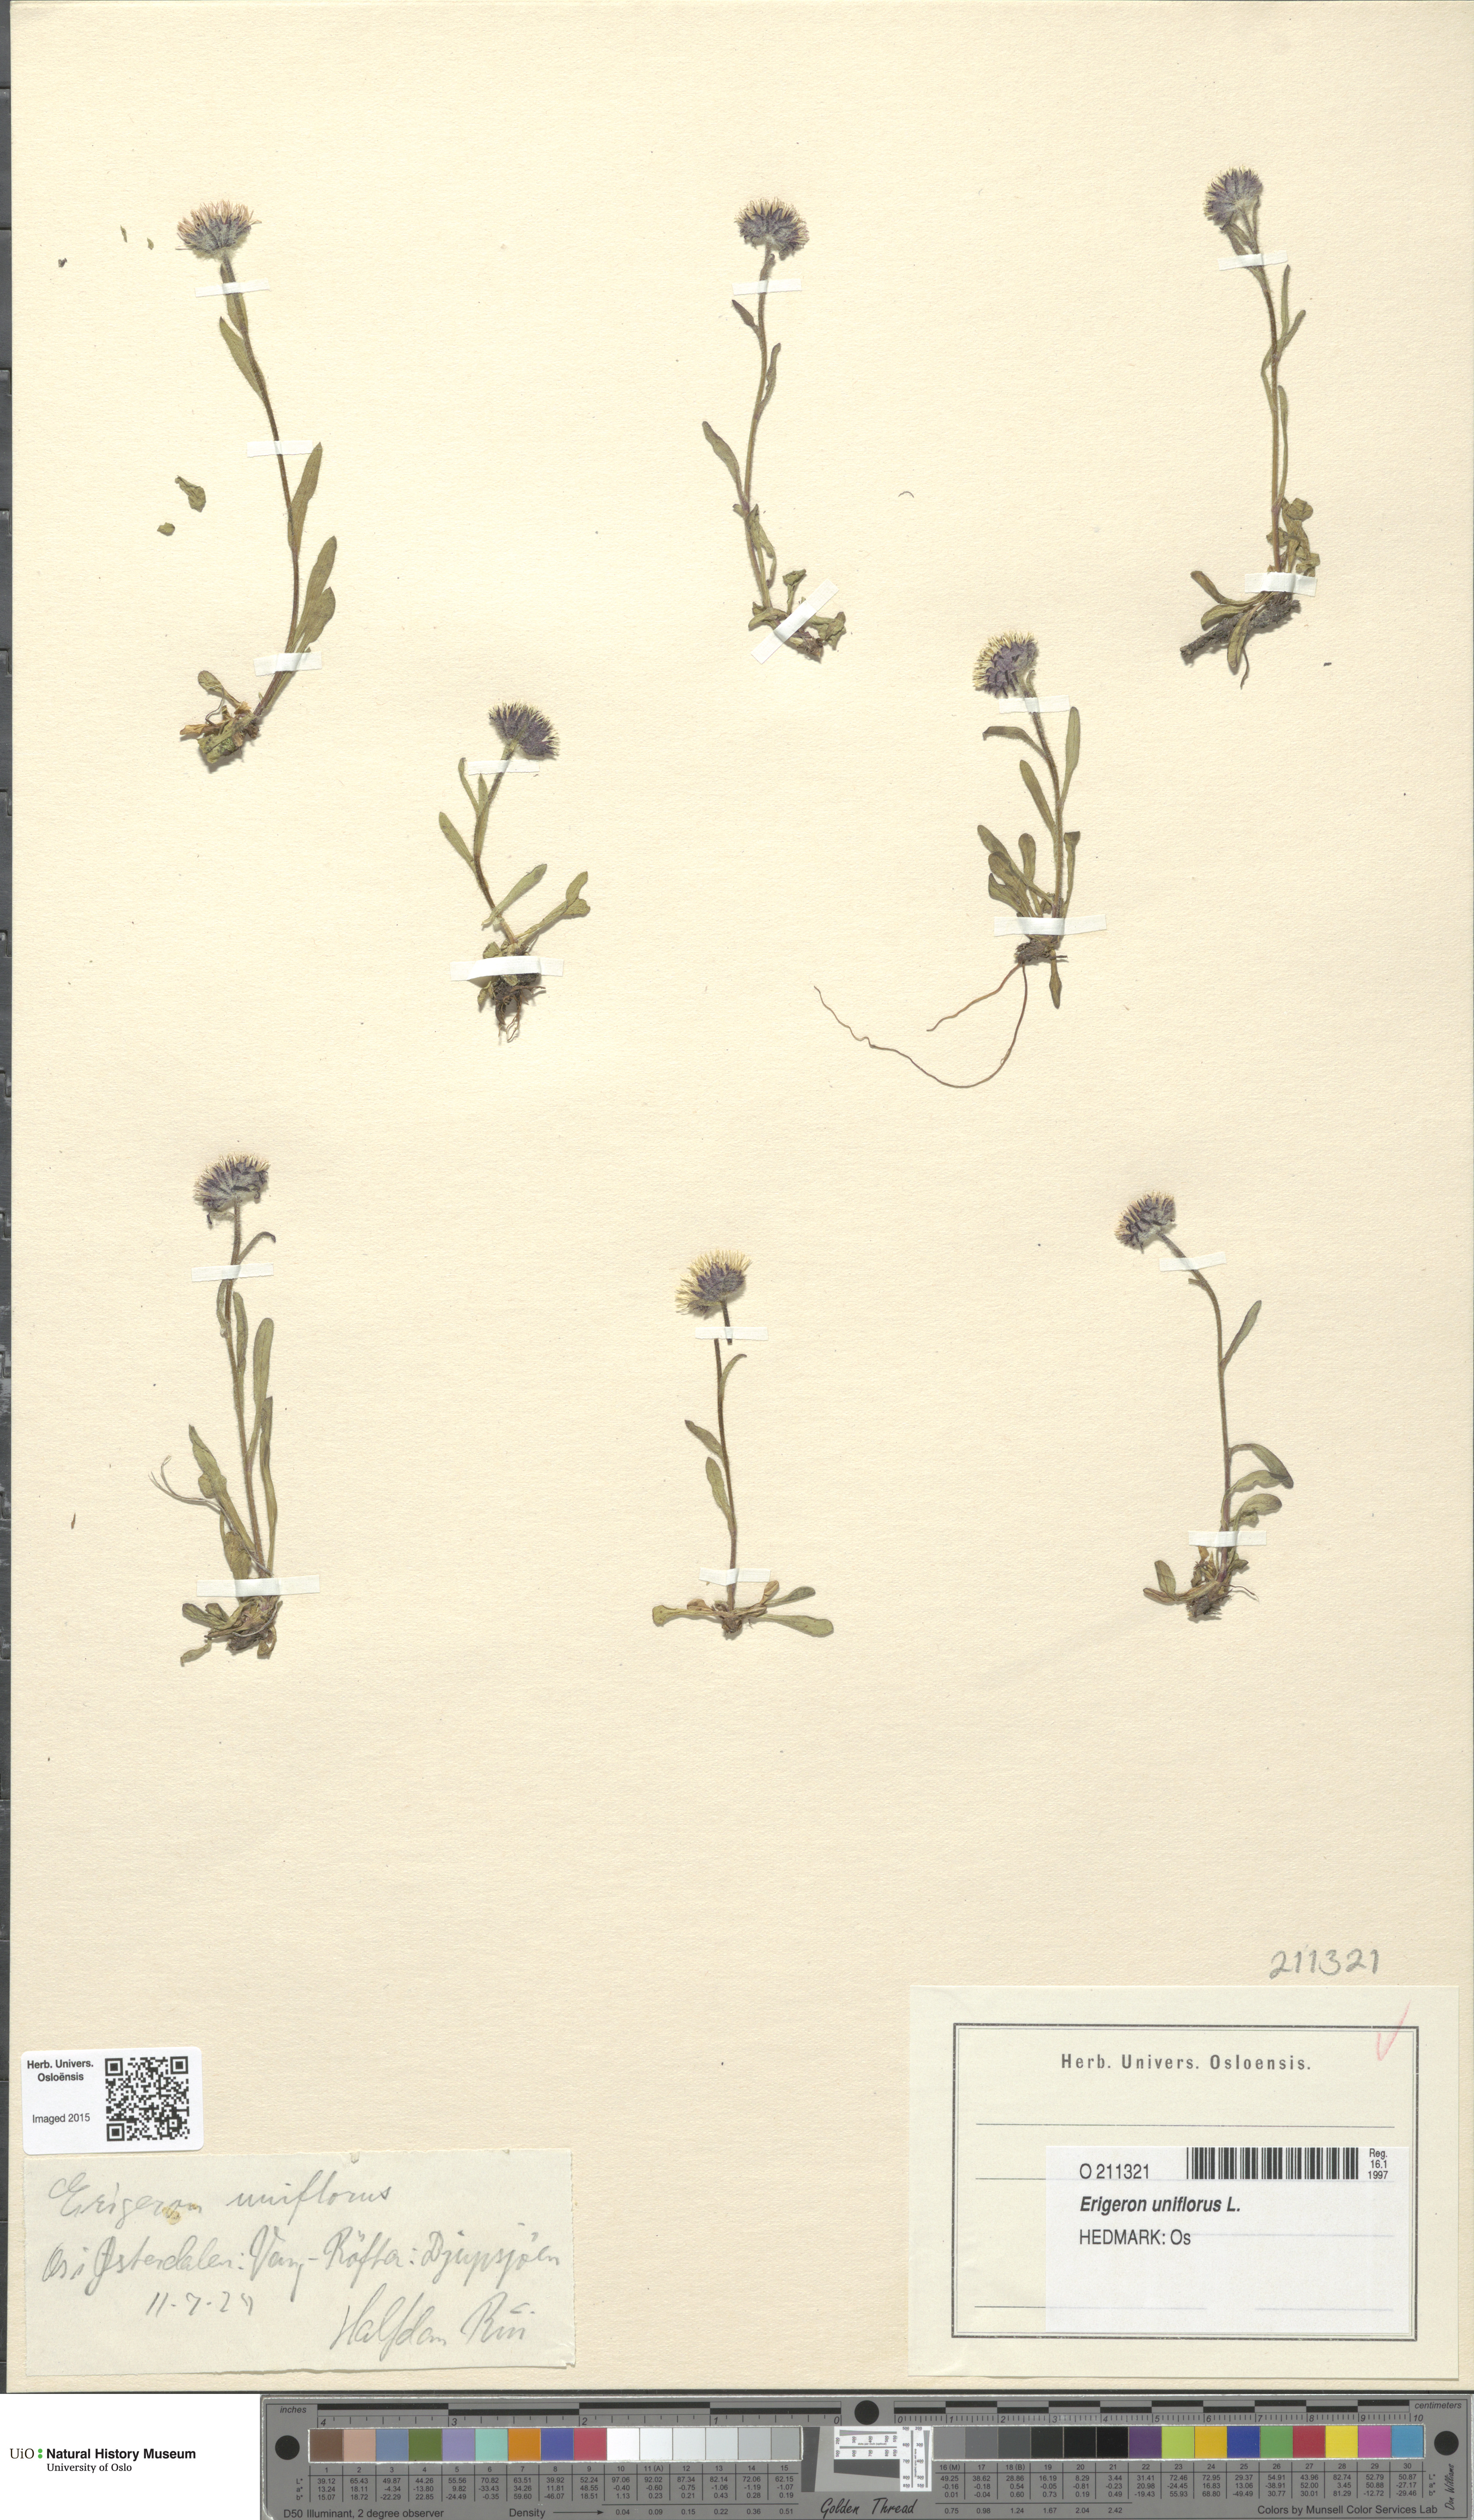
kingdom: Plantae
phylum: Tracheophyta
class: Magnoliopsida
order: Asterales
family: Asteraceae
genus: Erigeron
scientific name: Erigeron uniflorus
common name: Northern daisy
